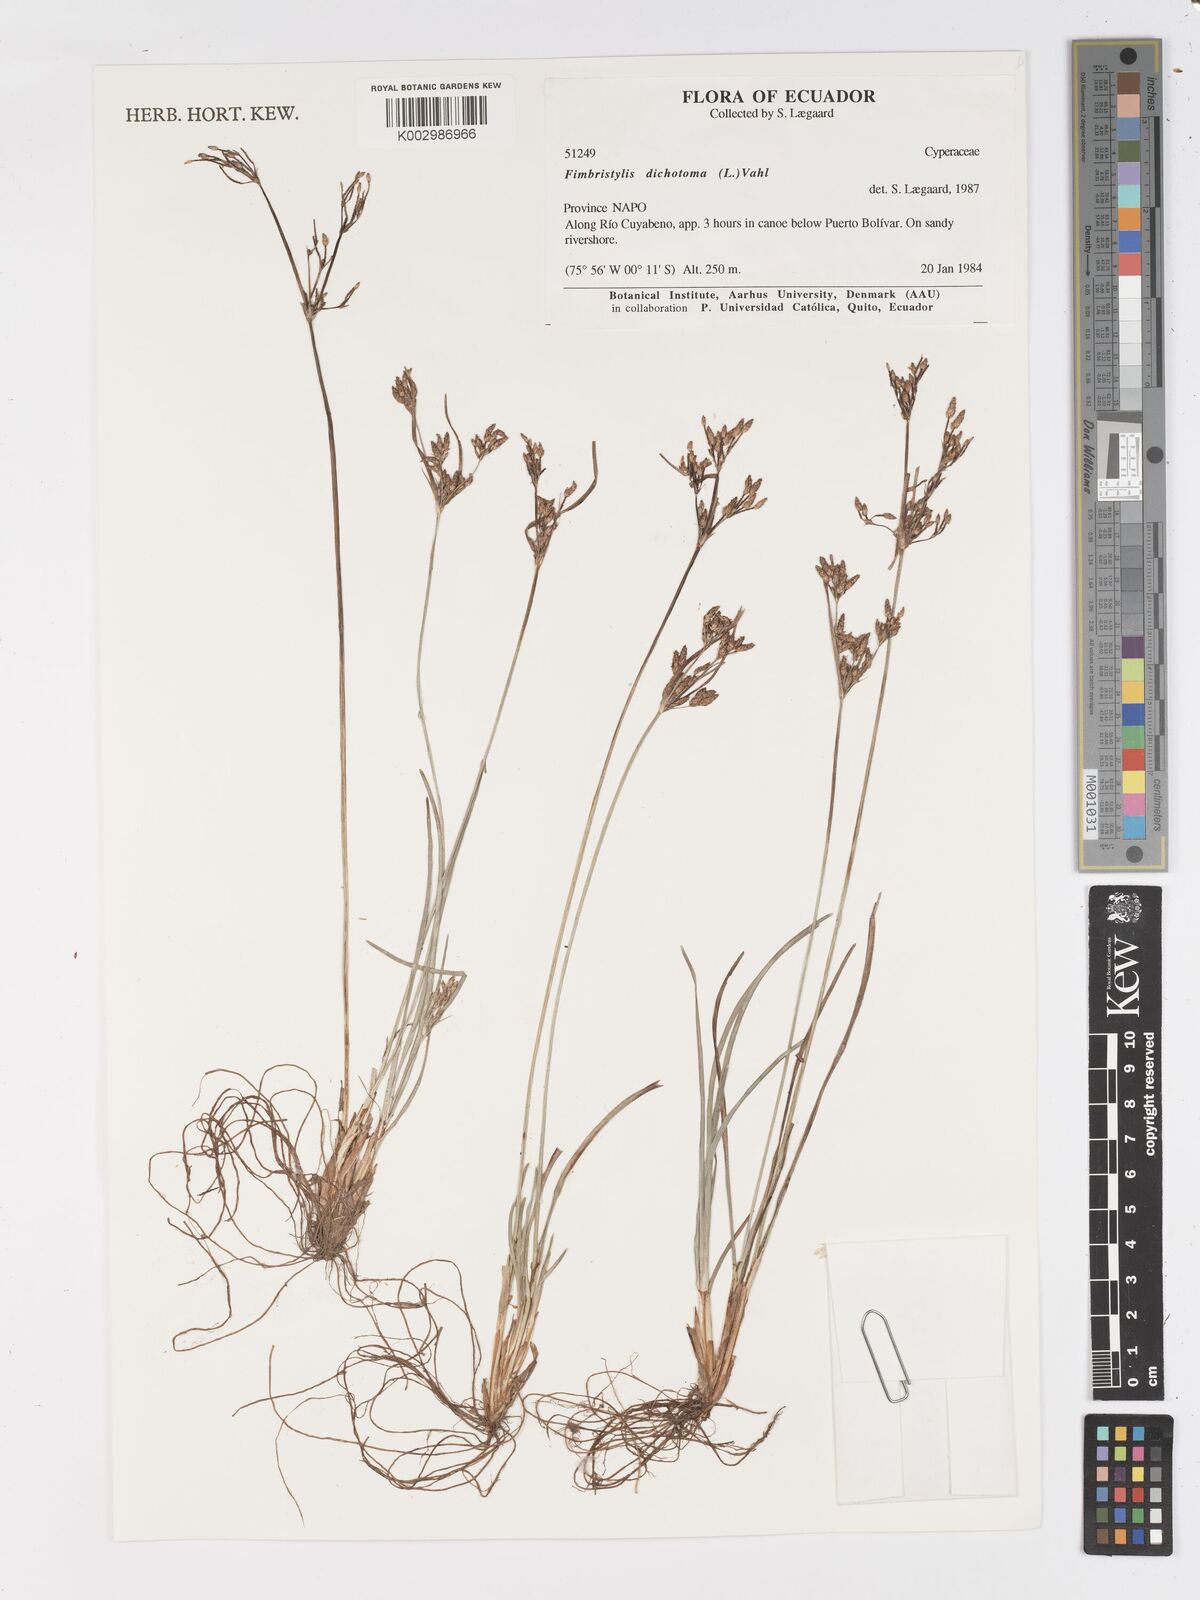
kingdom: Plantae
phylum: Tracheophyta
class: Liliopsida
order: Poales
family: Cyperaceae
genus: Fimbristylis
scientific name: Fimbristylis dichotoma
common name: Forked fimbry
